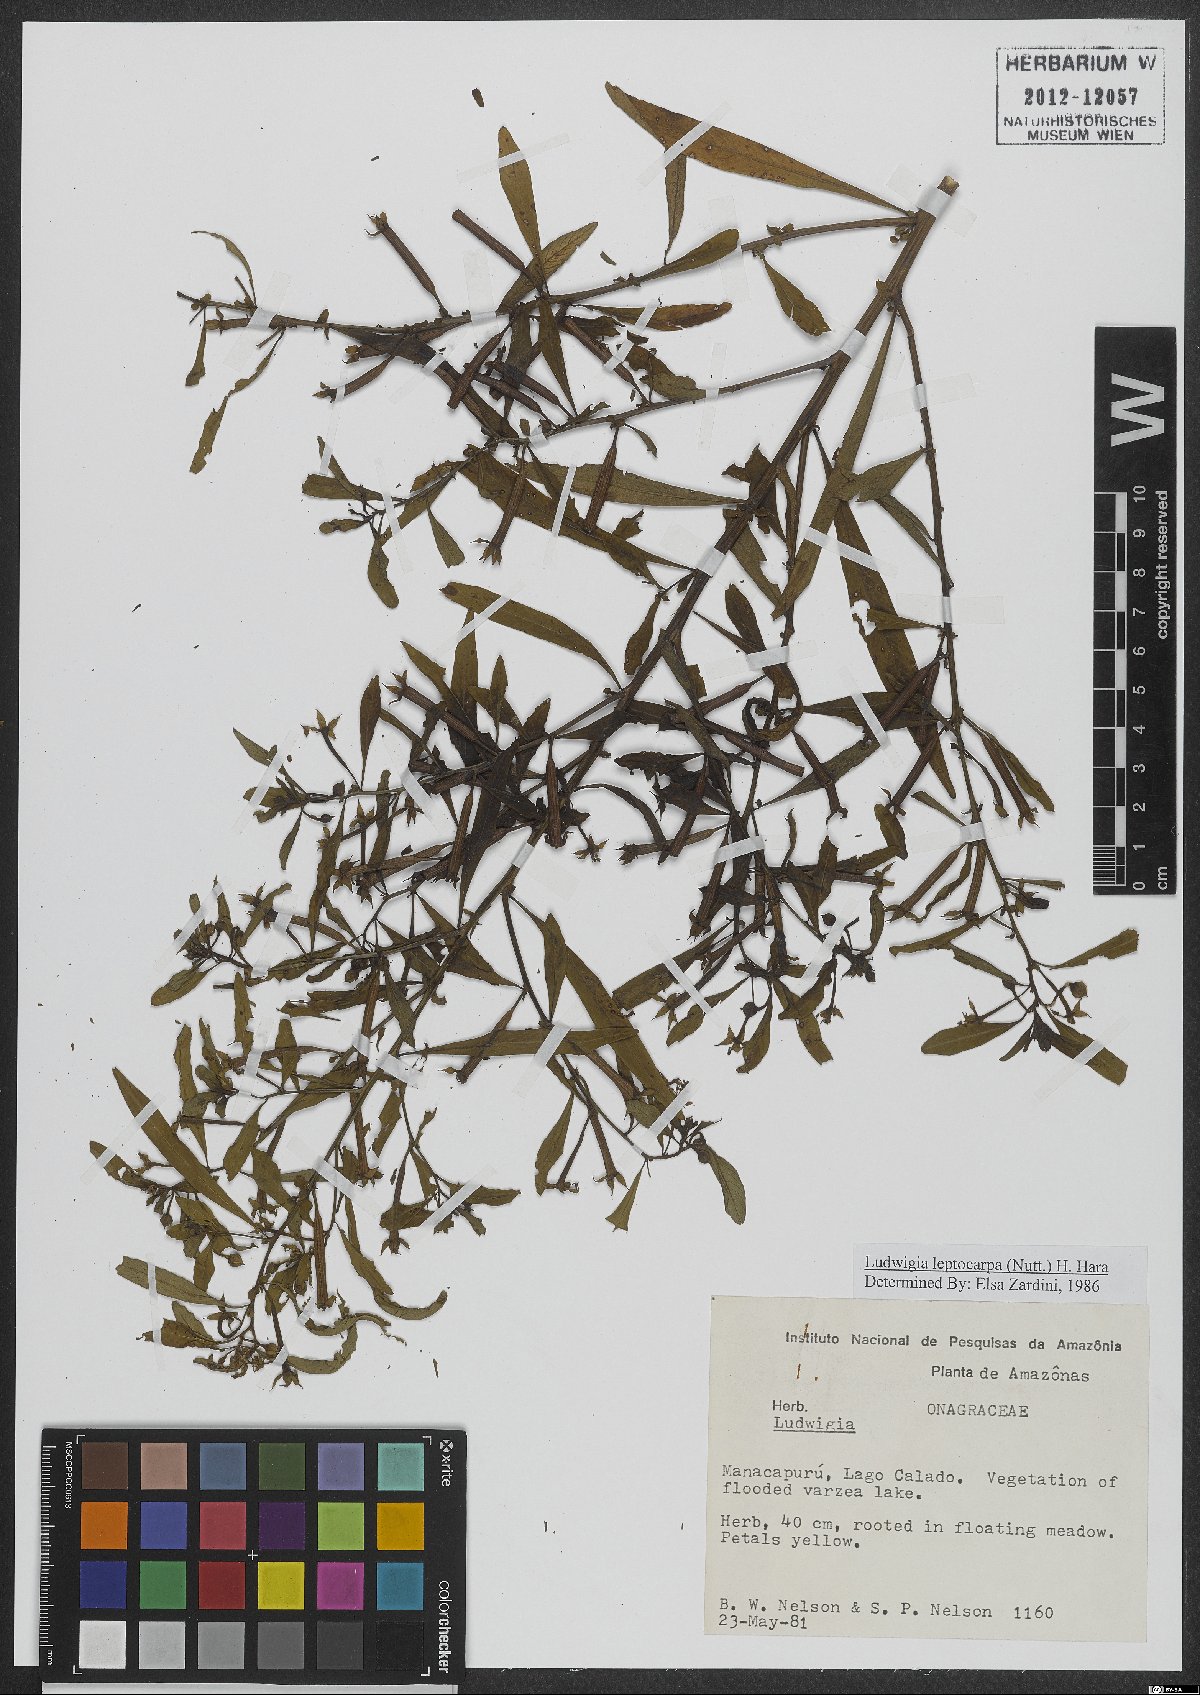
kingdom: Plantae
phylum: Tracheophyta
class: Magnoliopsida
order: Myrtales
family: Onagraceae
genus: Ludwigia
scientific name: Ludwigia leptocarpa
